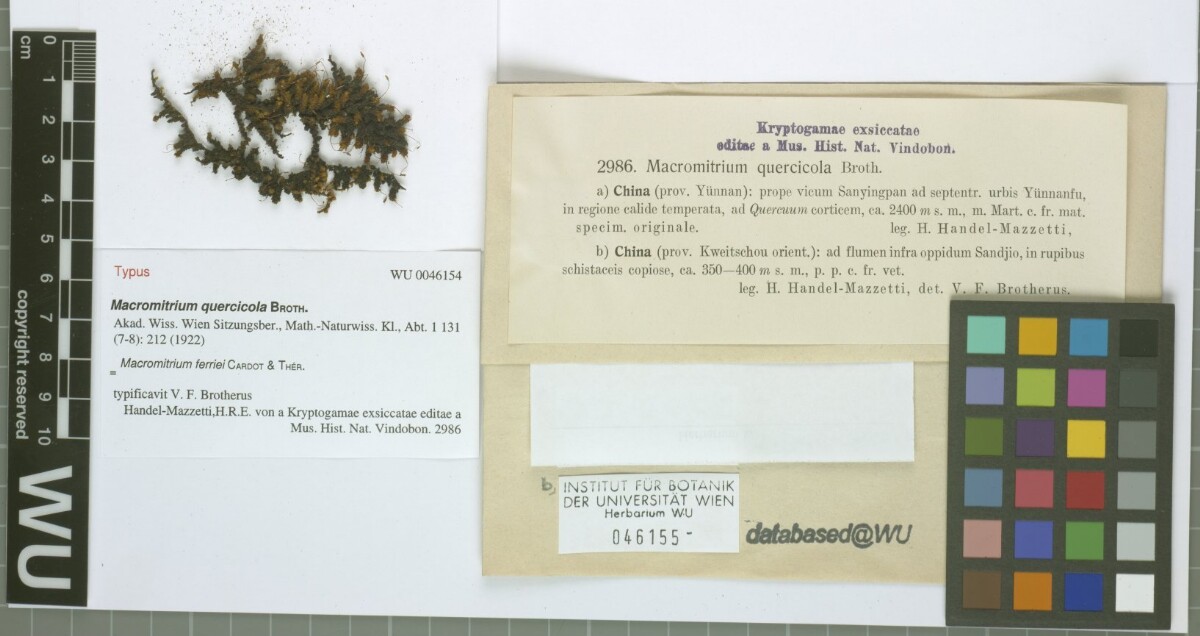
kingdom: Plantae
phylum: Bryophyta
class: Bryopsida
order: Orthotrichales
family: Orthotrichaceae
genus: Macromitrium
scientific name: Macromitrium ferriei
